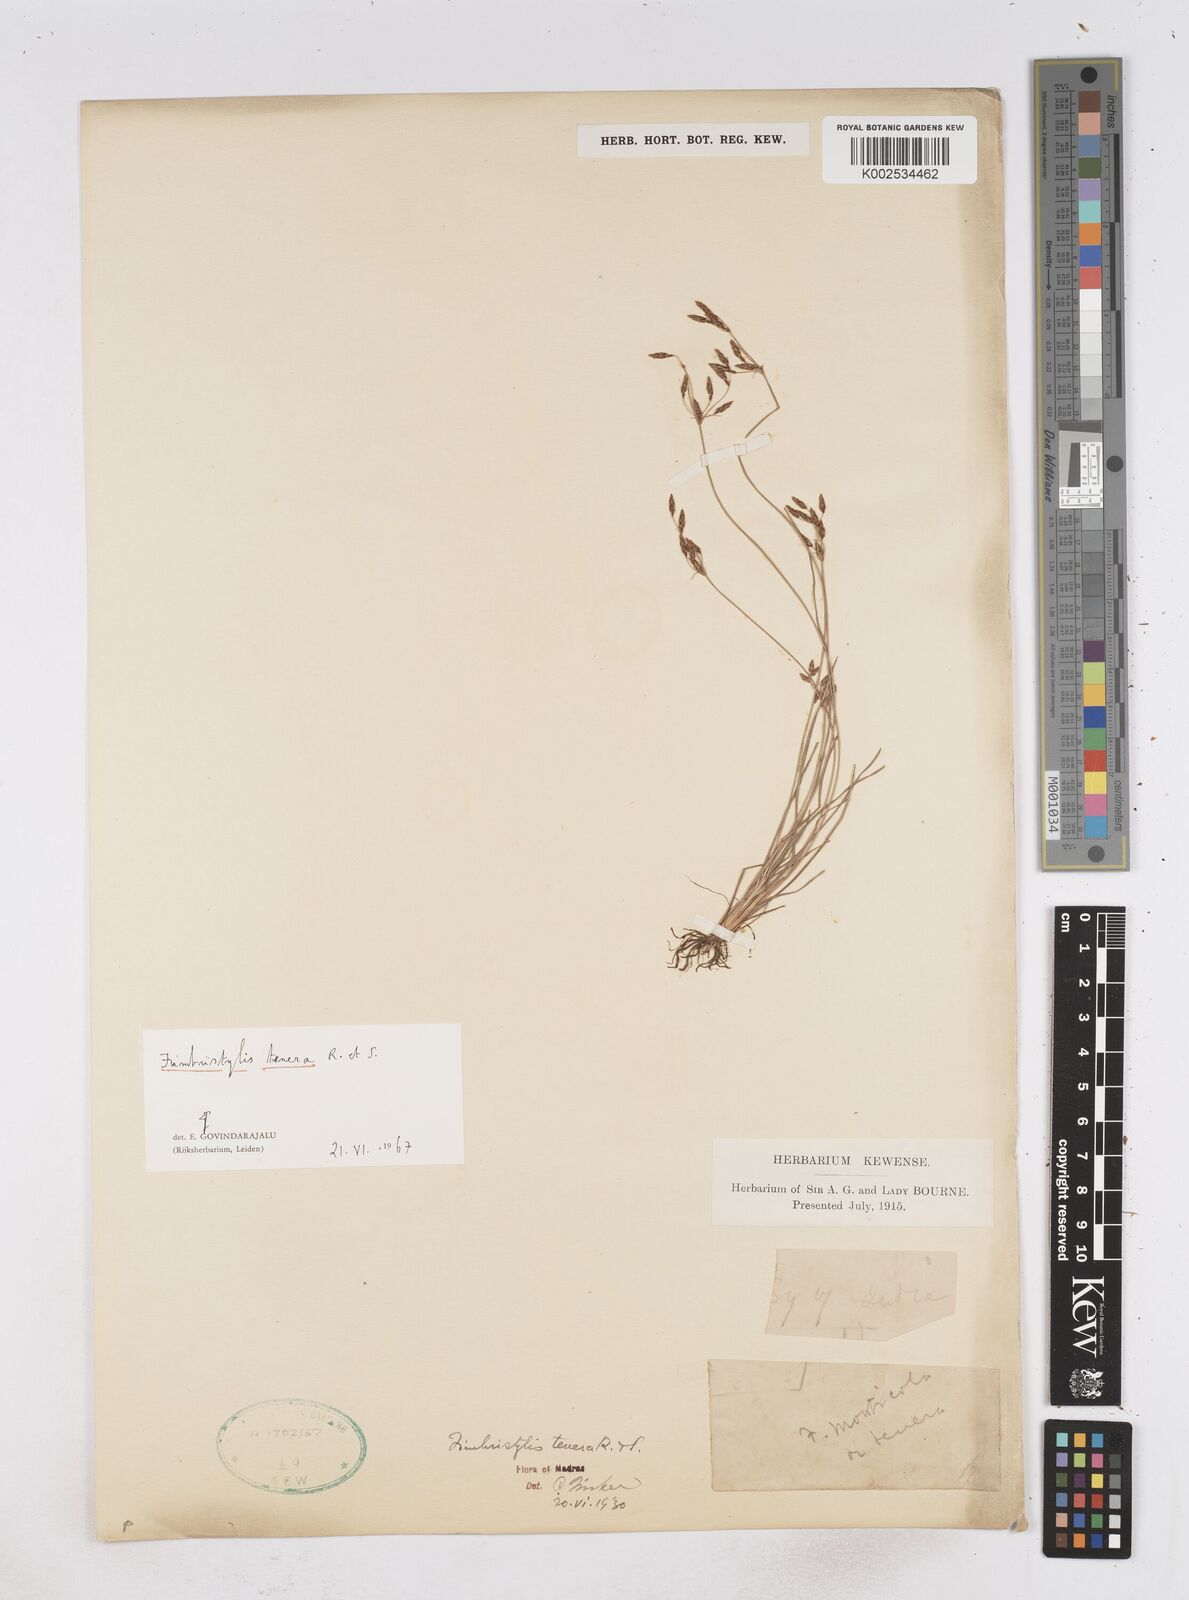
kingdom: Plantae
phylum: Tracheophyta
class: Liliopsida
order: Poales
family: Cyperaceae
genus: Fimbristylis
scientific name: Fimbristylis tenera
